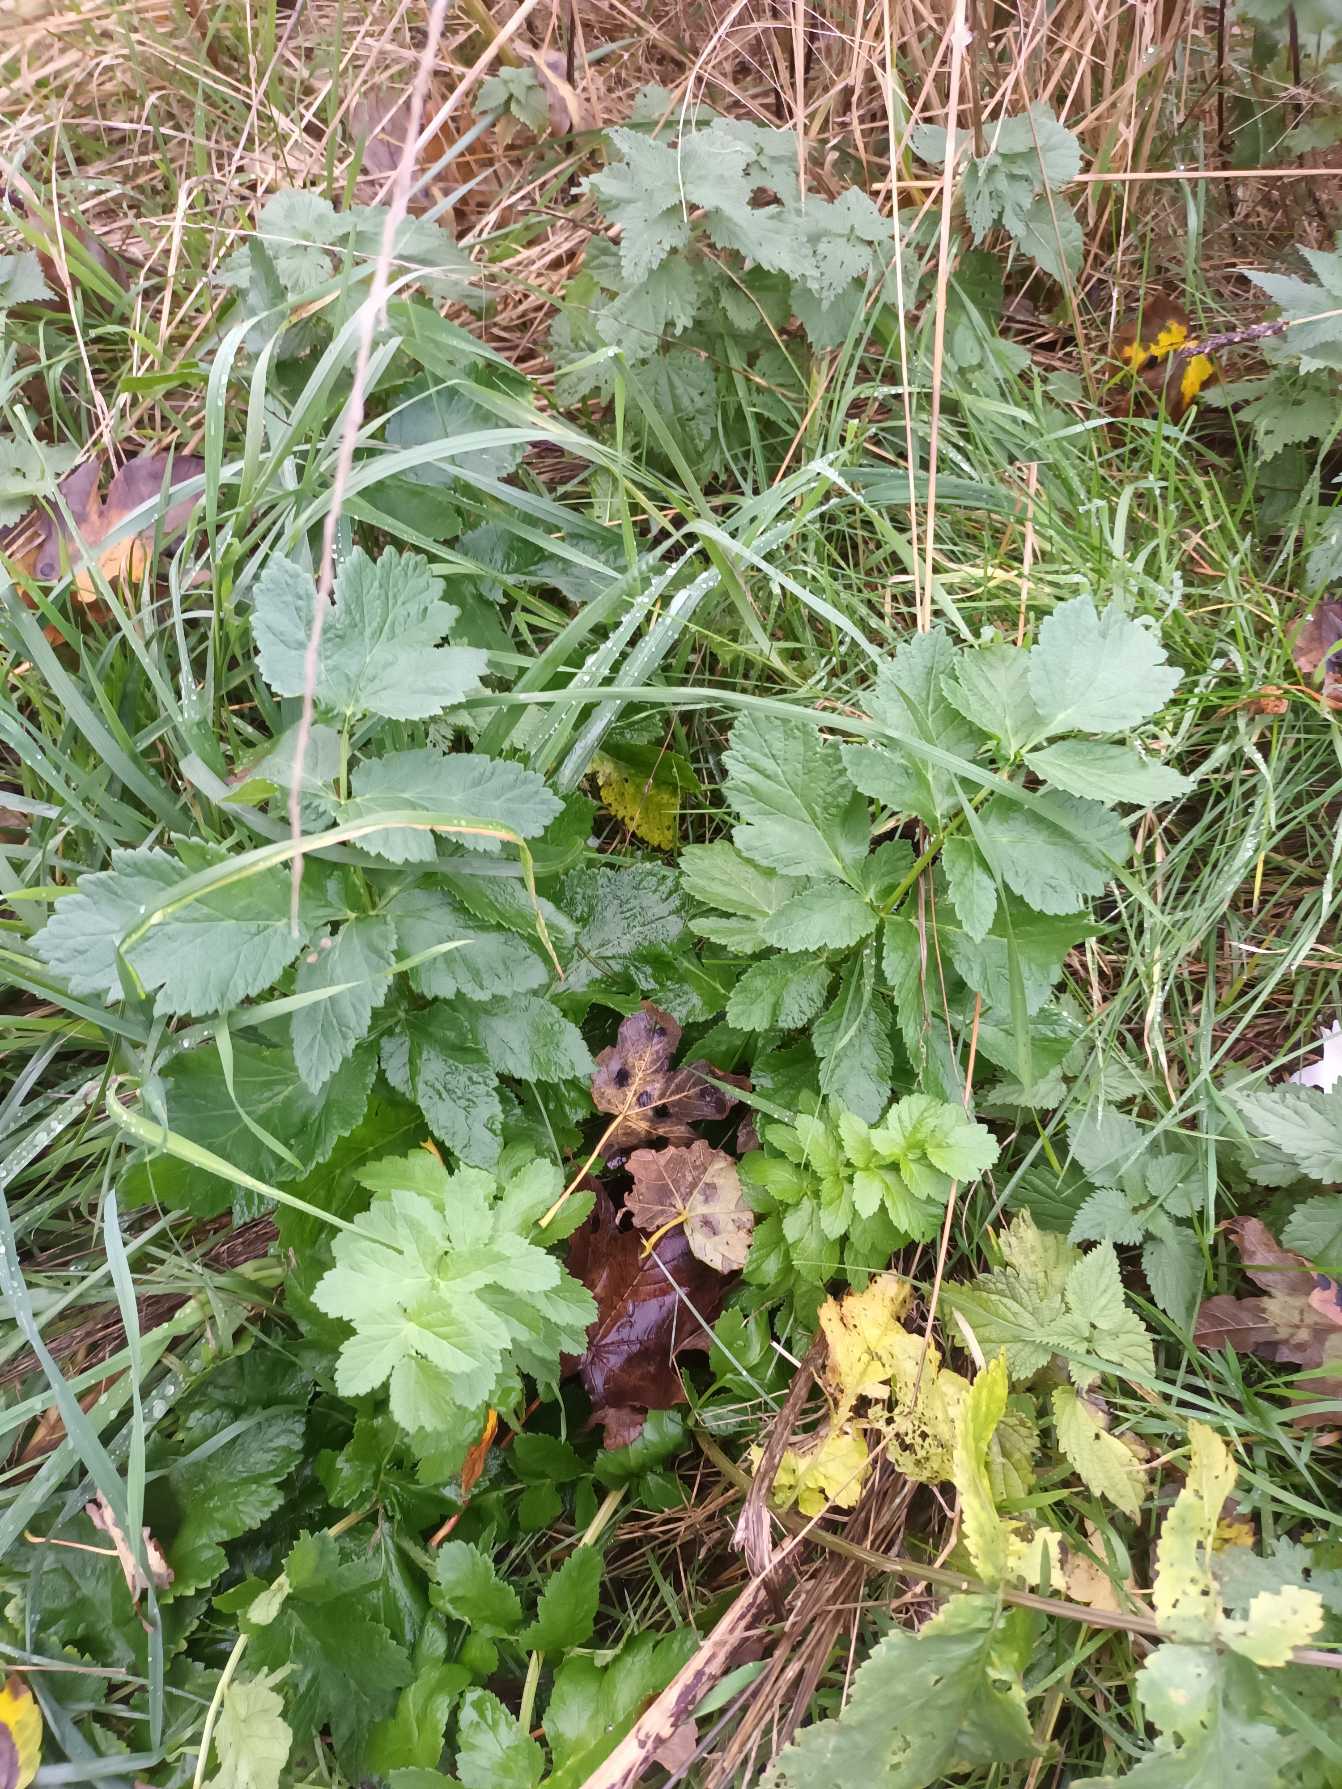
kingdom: Plantae
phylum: Tracheophyta
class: Magnoliopsida
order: Apiales
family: Apiaceae
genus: Pastinaca
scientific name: Pastinaca sativa
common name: Pastinak
